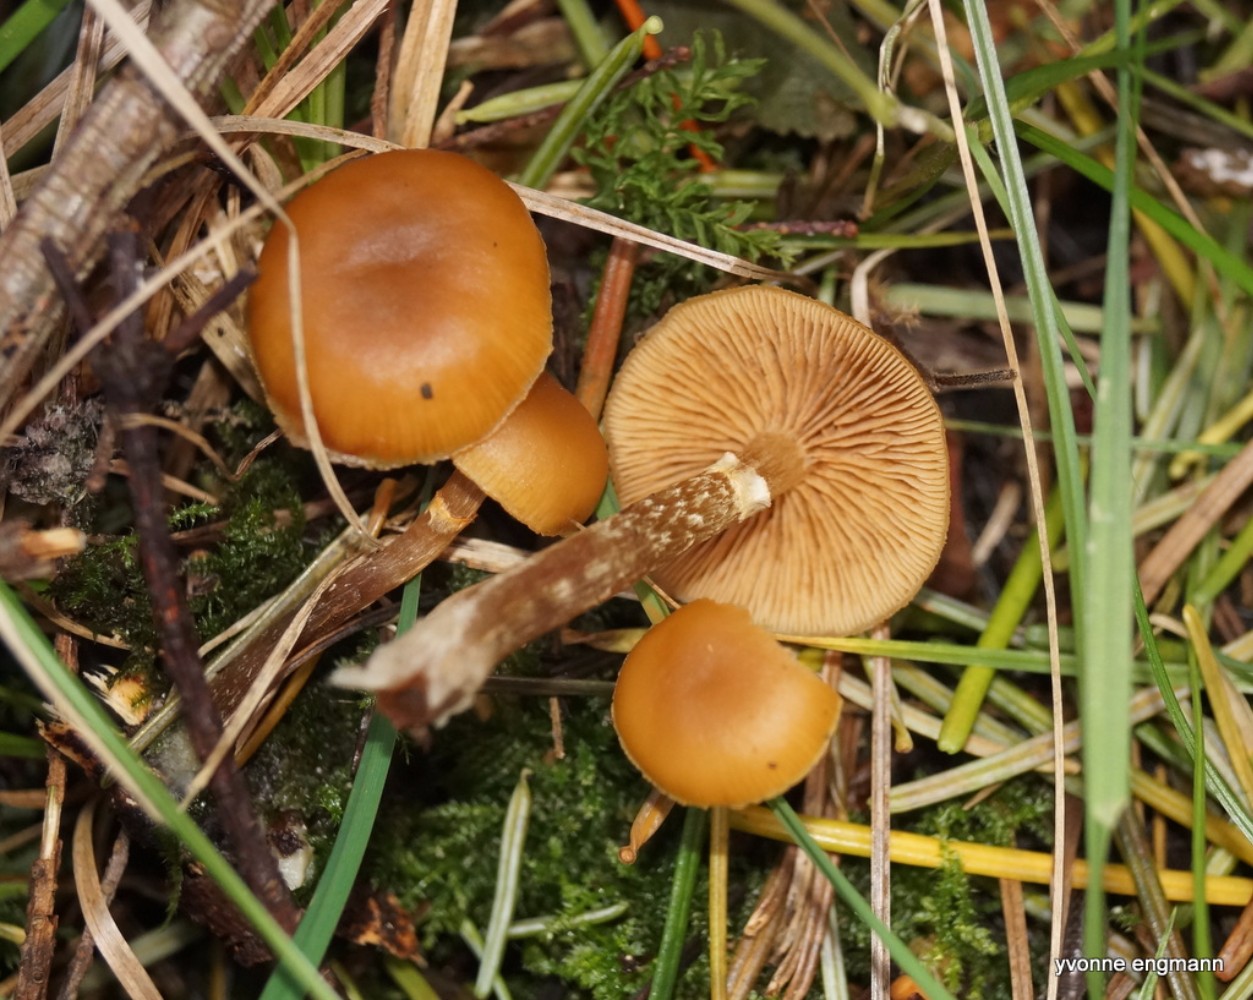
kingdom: Fungi
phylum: Basidiomycota
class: Agaricomycetes
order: Agaricales
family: Hymenogastraceae
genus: Galerina
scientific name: Galerina marginata
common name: randbæltet hjelmhat
